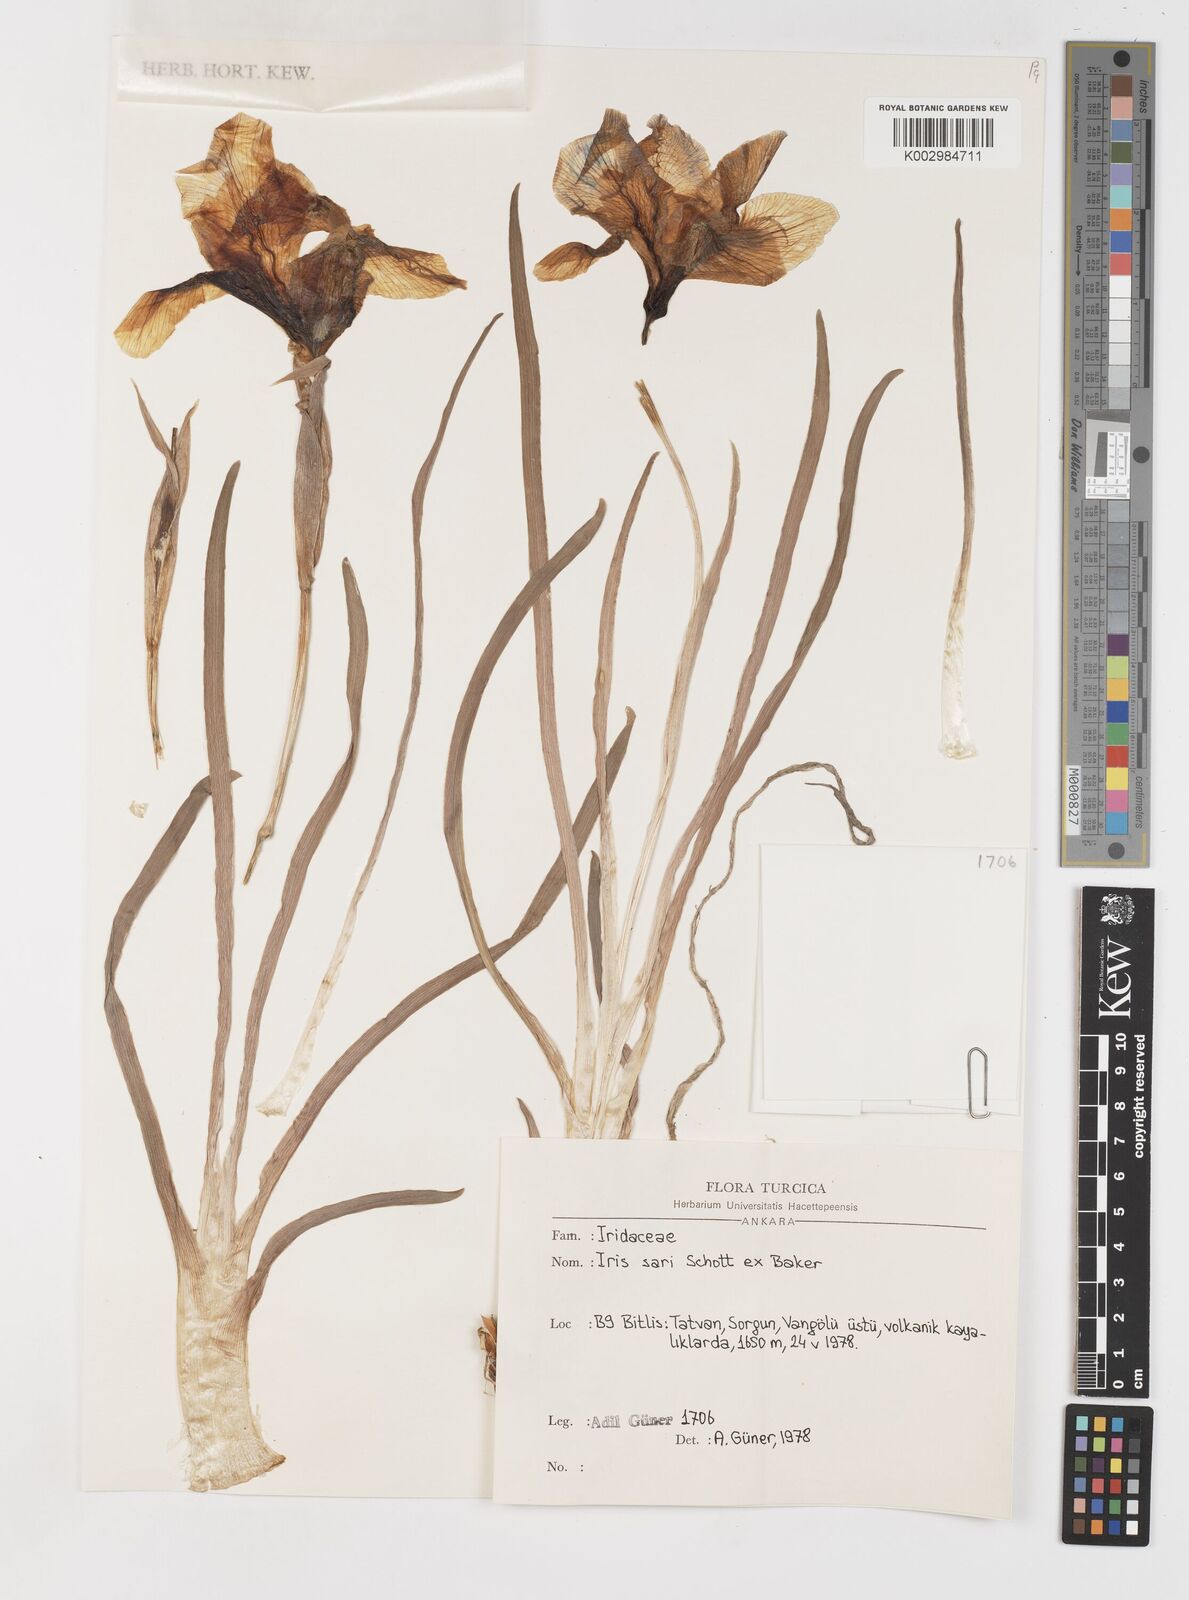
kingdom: Plantae
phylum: Tracheophyta
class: Liliopsida
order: Asparagales
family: Iridaceae
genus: Iris
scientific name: Iris sari
